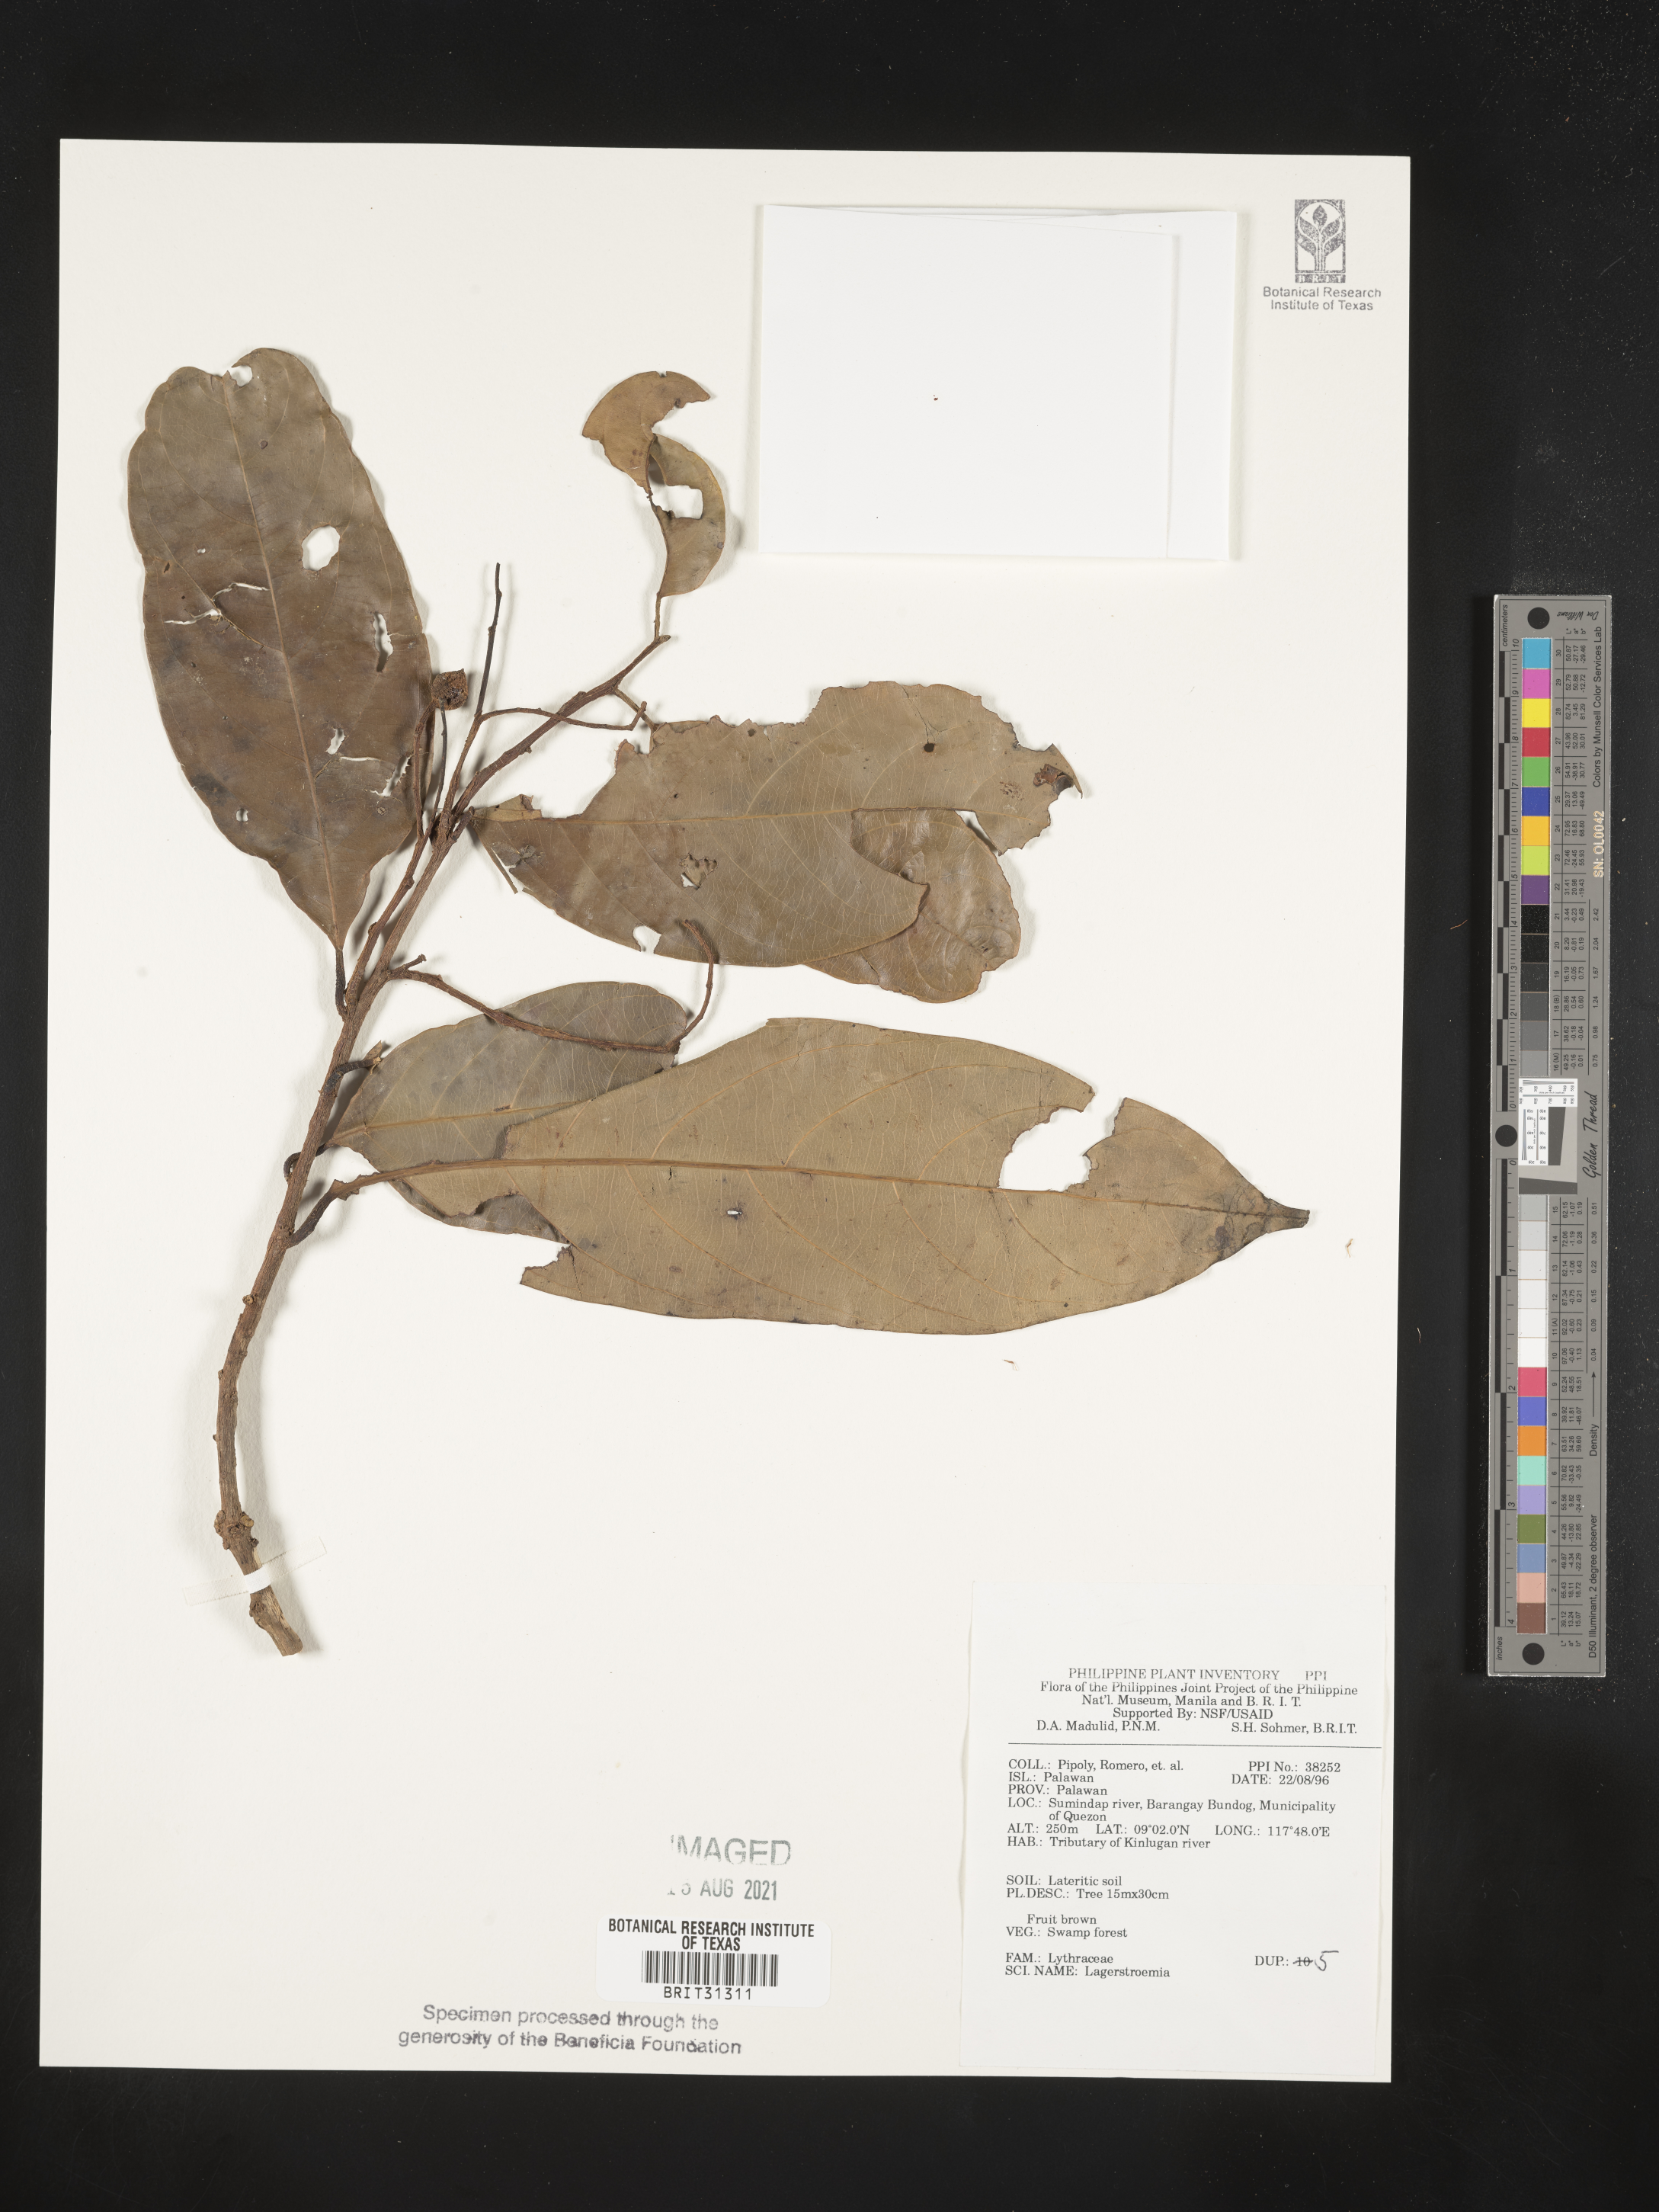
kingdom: Plantae
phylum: Tracheophyta
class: Magnoliopsida
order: Myrtales
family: Lythraceae
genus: Lagerstroemia
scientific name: Lagerstroemia
